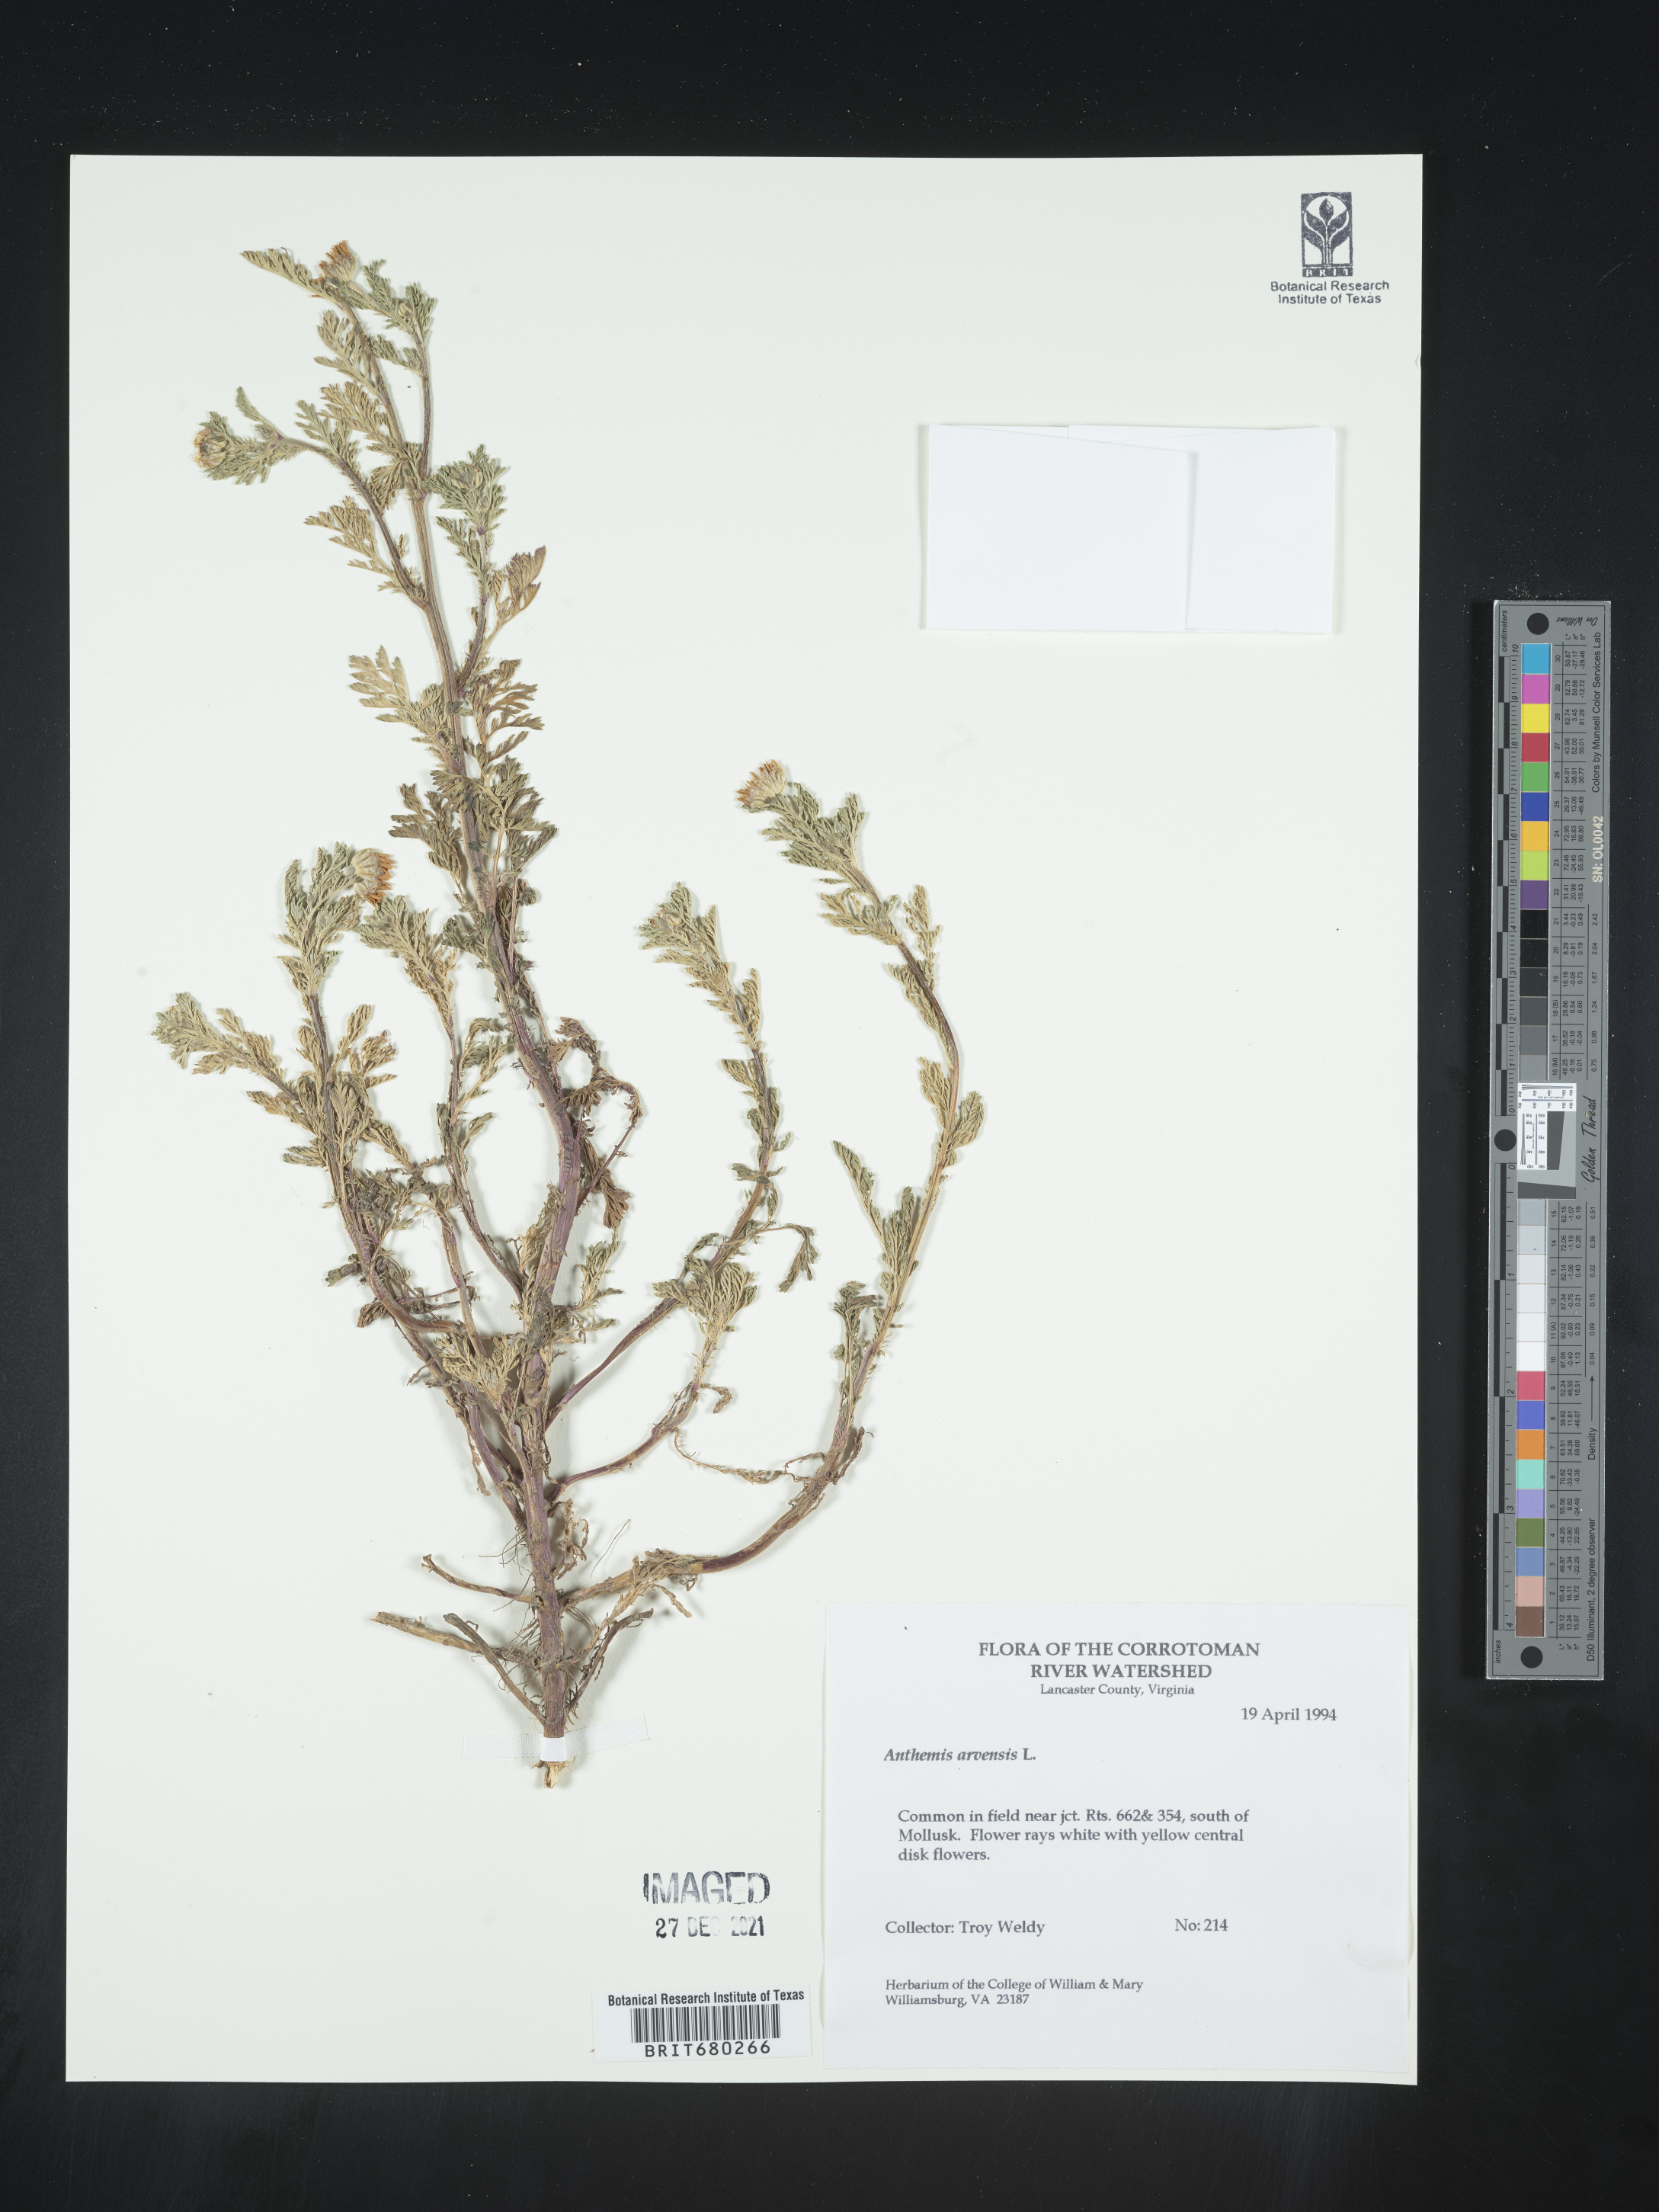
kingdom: Plantae
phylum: Tracheophyta
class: Magnoliopsida
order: Asterales
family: Asteraceae
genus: Anthemis
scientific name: Anthemis arvensis
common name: Corn chamomile
